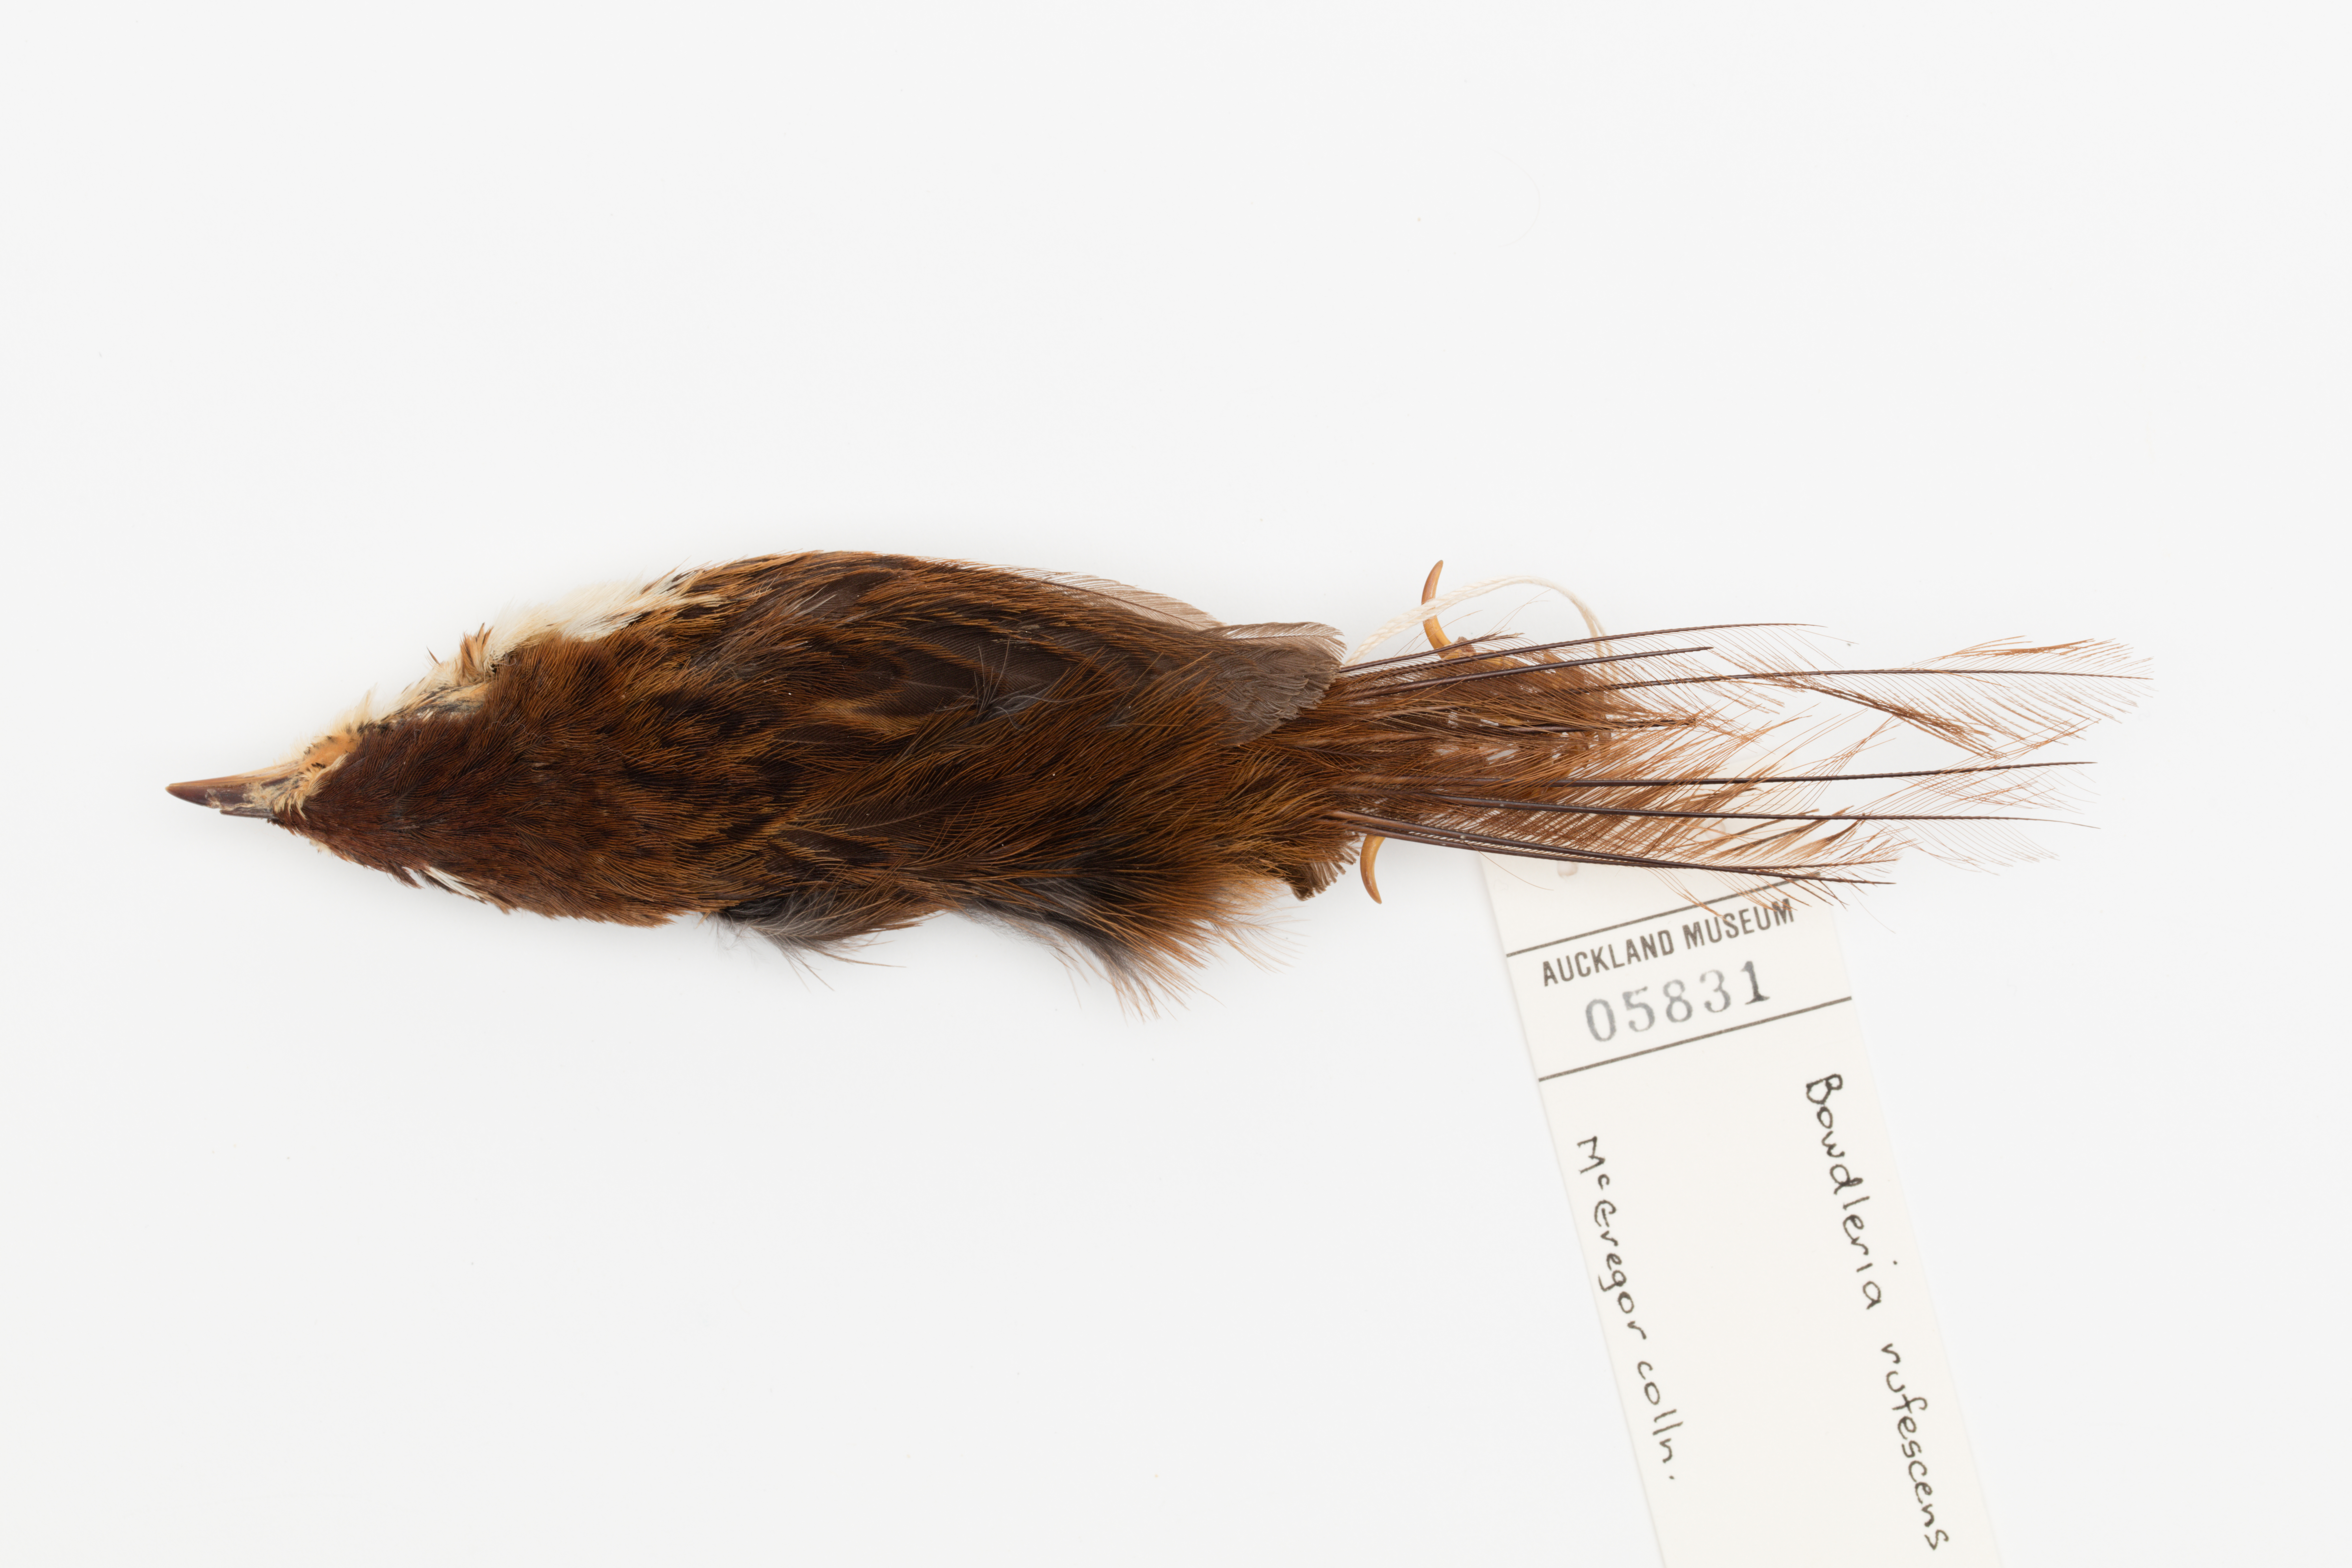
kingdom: Animalia
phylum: Chordata
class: Aves
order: Passeriformes
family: Locustellidae
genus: Megalurus
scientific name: Megalurus rufescens
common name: Chatham fernbird
